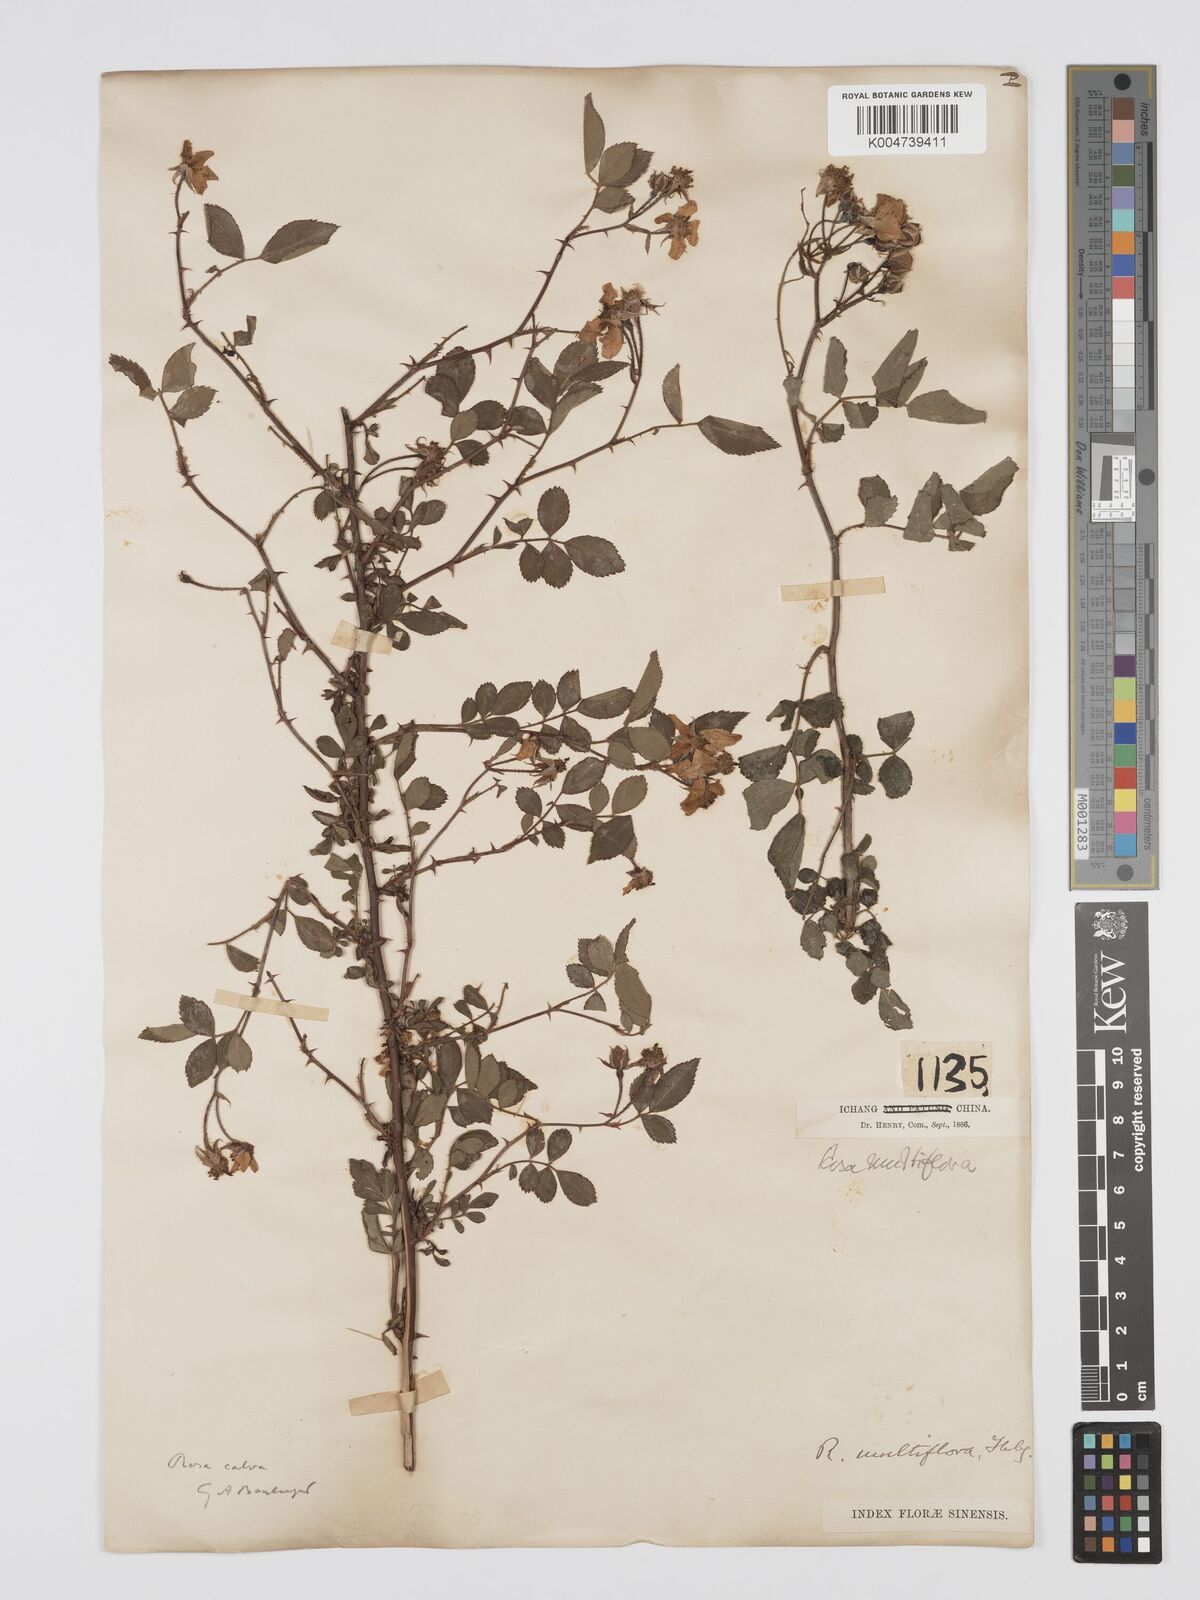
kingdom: Plantae
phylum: Tracheophyta
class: Magnoliopsida
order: Rosales
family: Rosaceae
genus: Rosa
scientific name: Rosa
